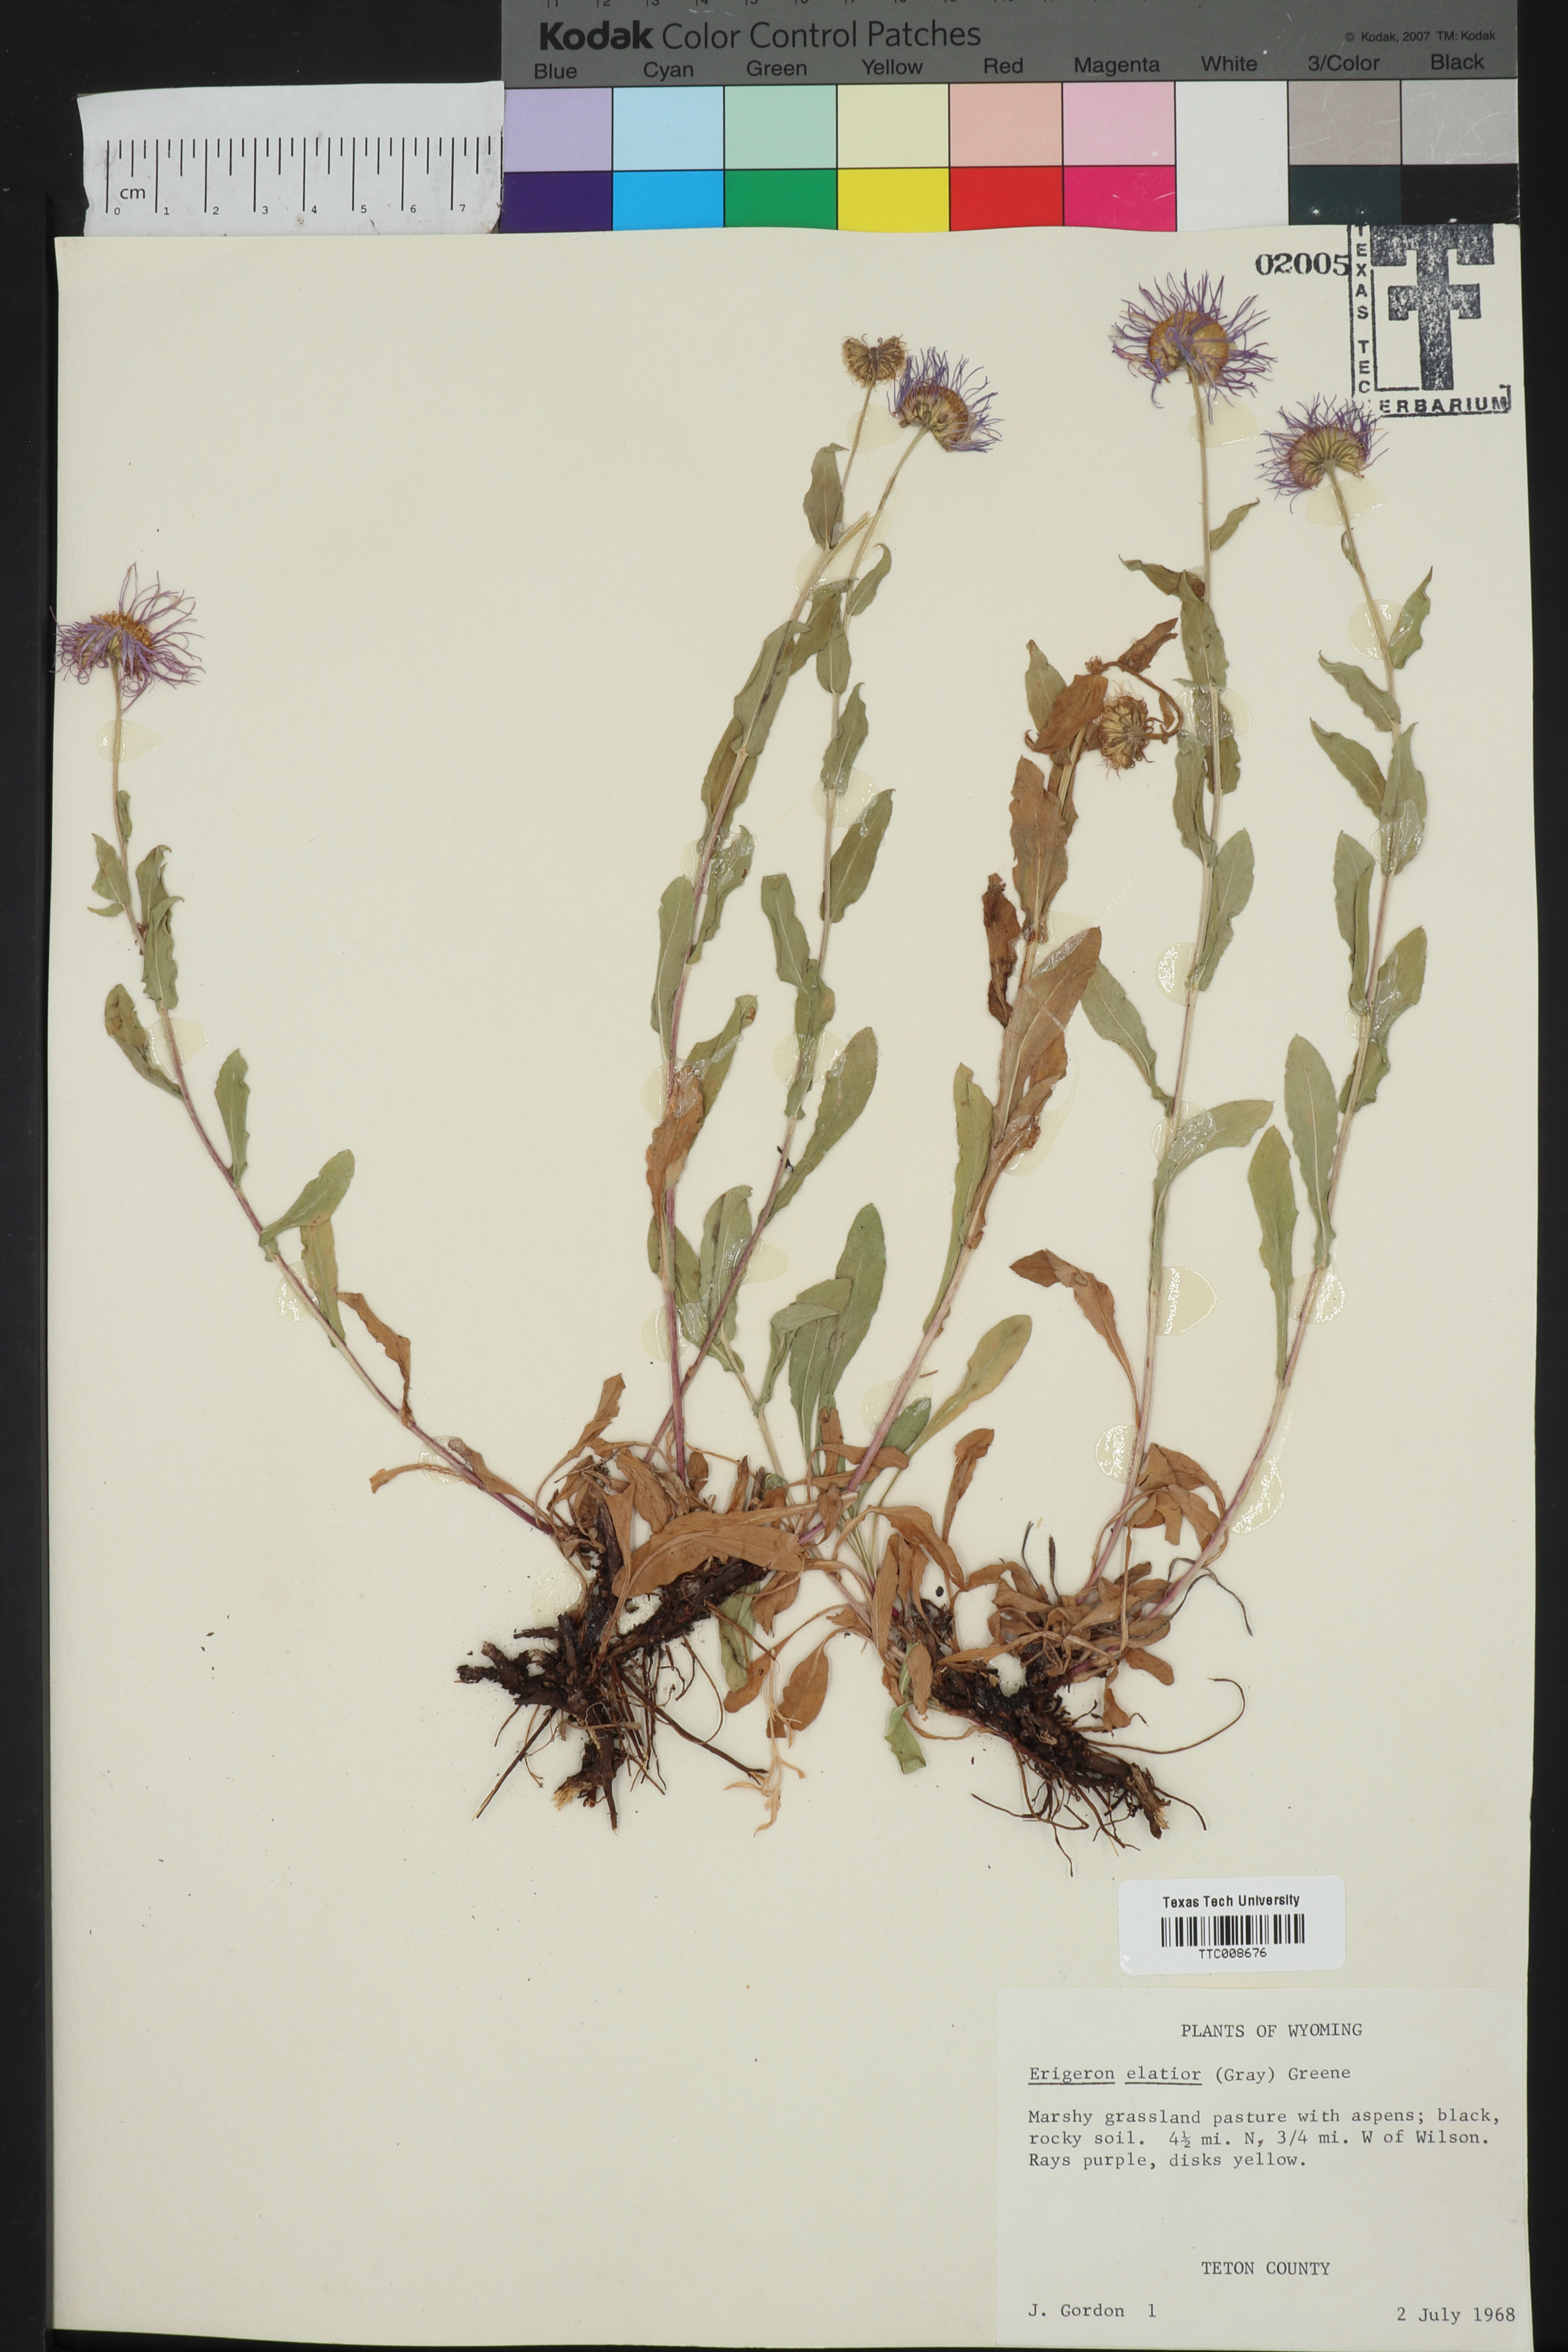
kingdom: Plantae
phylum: Tracheophyta
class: Magnoliopsida
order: Asterales
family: Asteraceae
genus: Erigeron
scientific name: Erigeron elatior
